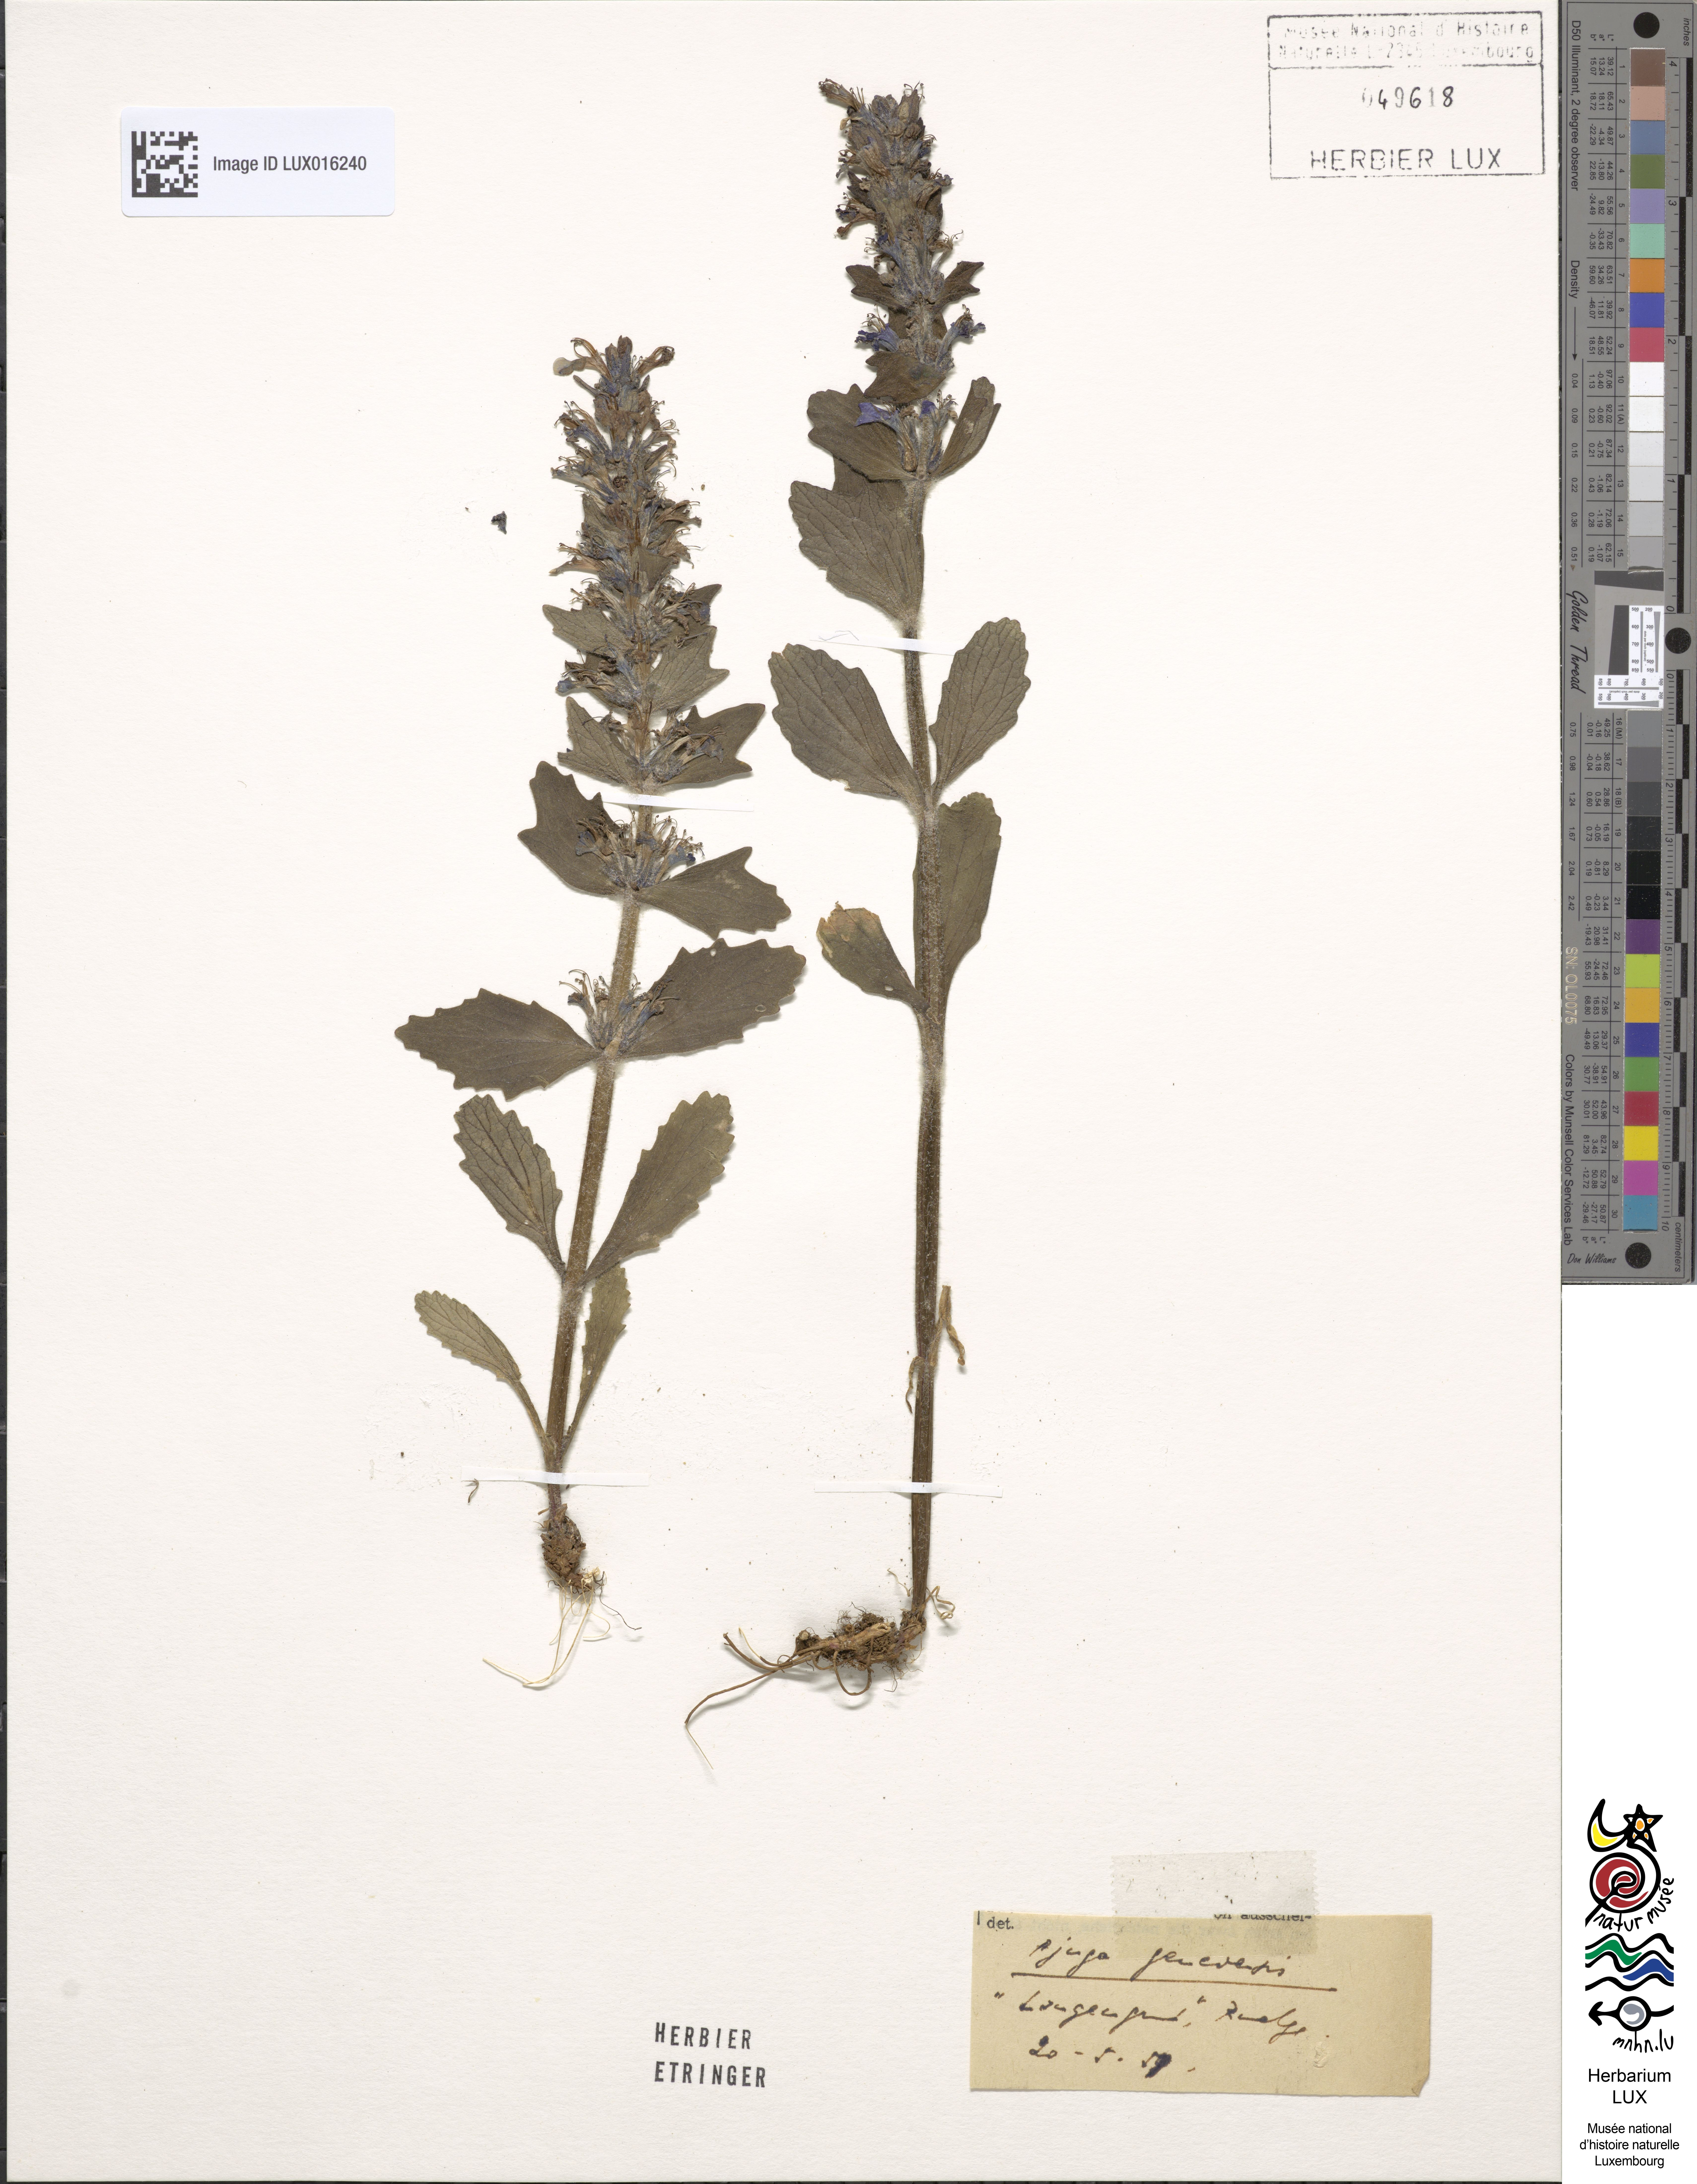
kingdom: Plantae
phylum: Tracheophyta
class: Magnoliopsida
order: Lamiales
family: Lamiaceae
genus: Ajuga
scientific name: Ajuga genevensis
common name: Blue bugle
